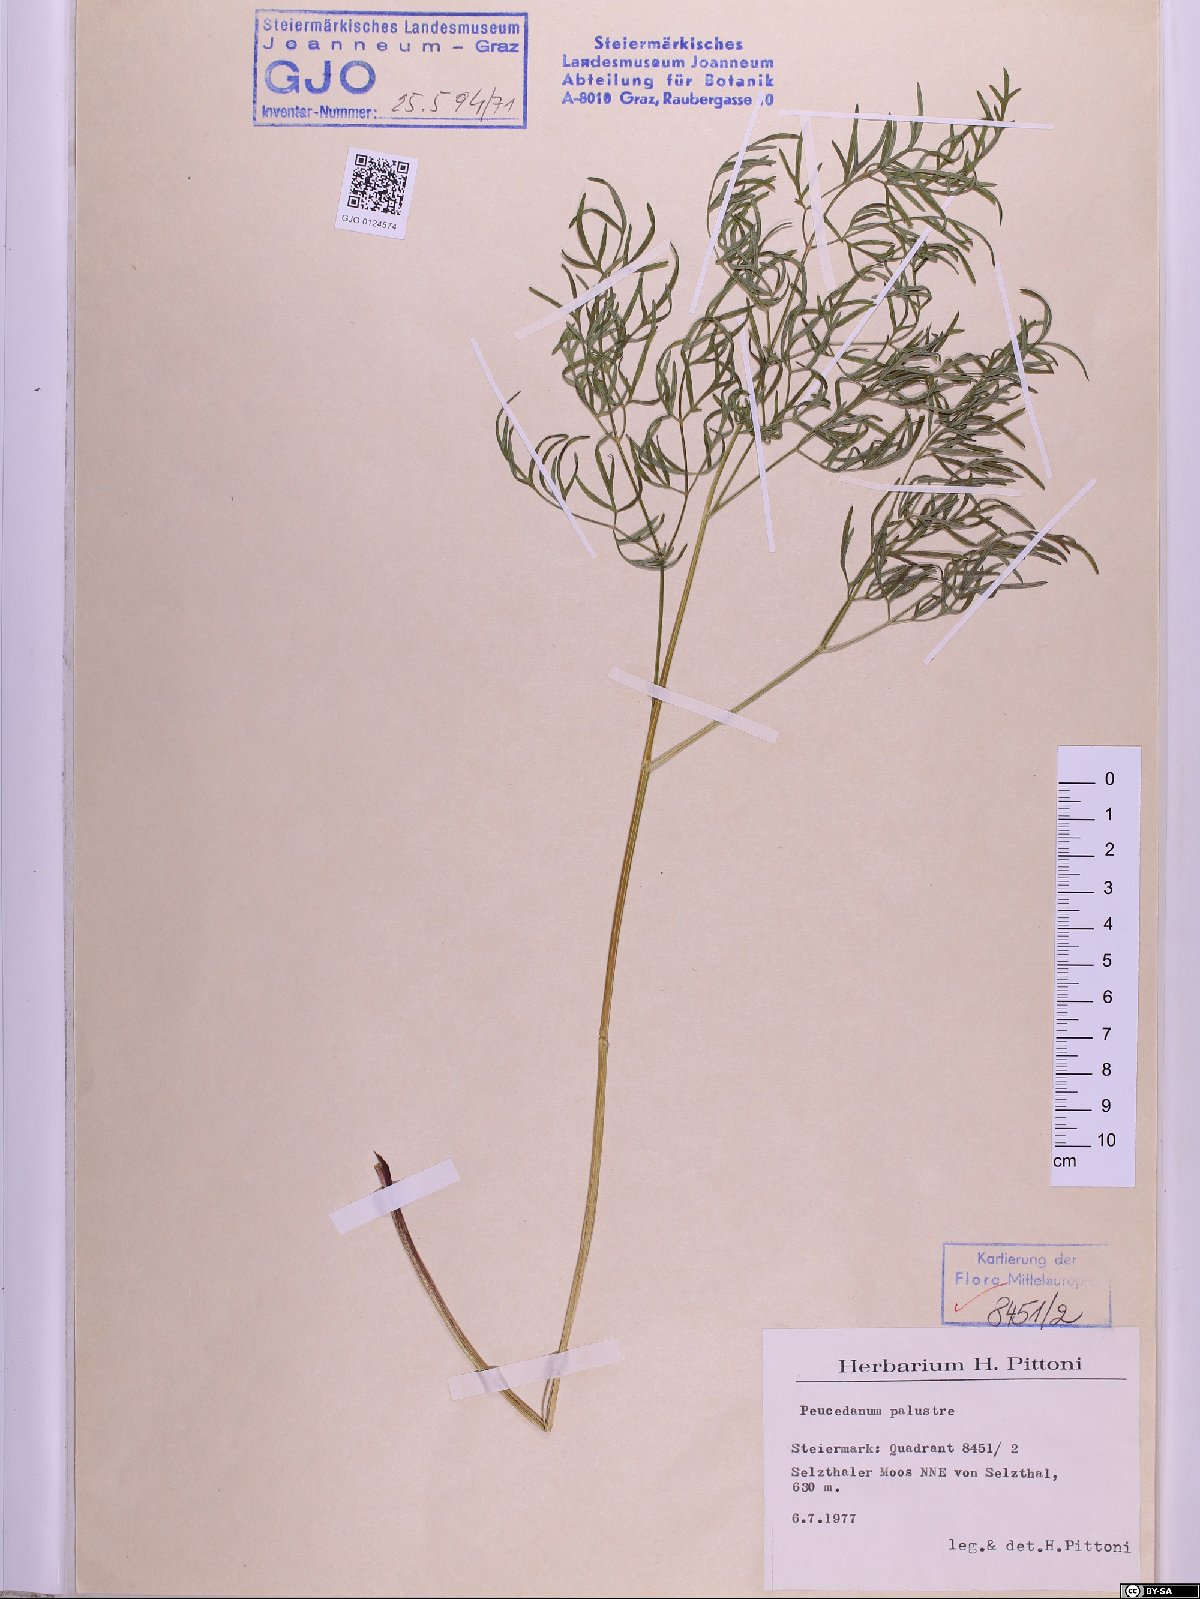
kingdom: Plantae
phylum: Tracheophyta
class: Magnoliopsida
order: Apiales
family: Apiaceae
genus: Thysselinum
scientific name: Thysselinum palustre
